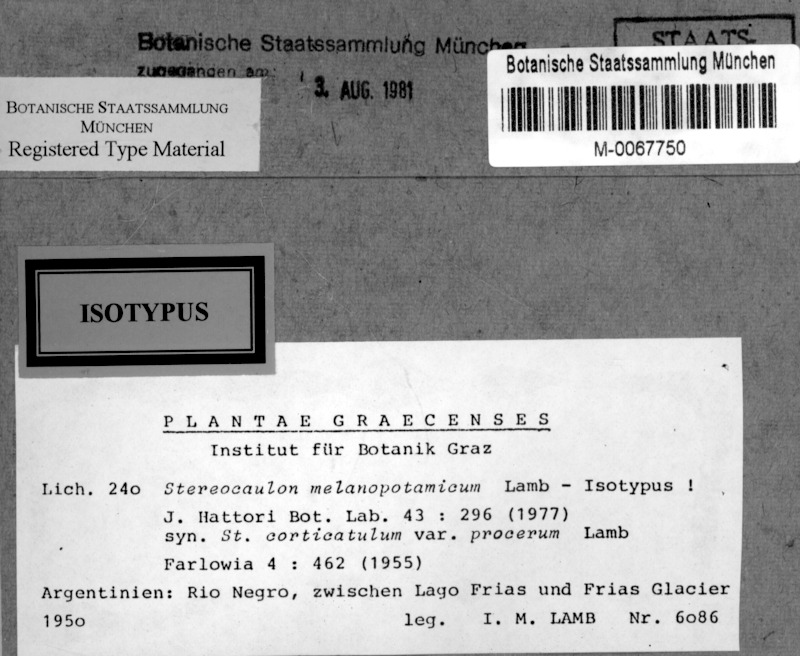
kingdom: Fungi
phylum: Ascomycota
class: Lecanoromycetes
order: Lecanorales
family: Stereocaulaceae
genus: Stereocaulon
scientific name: Stereocaulon melanopotamicum
